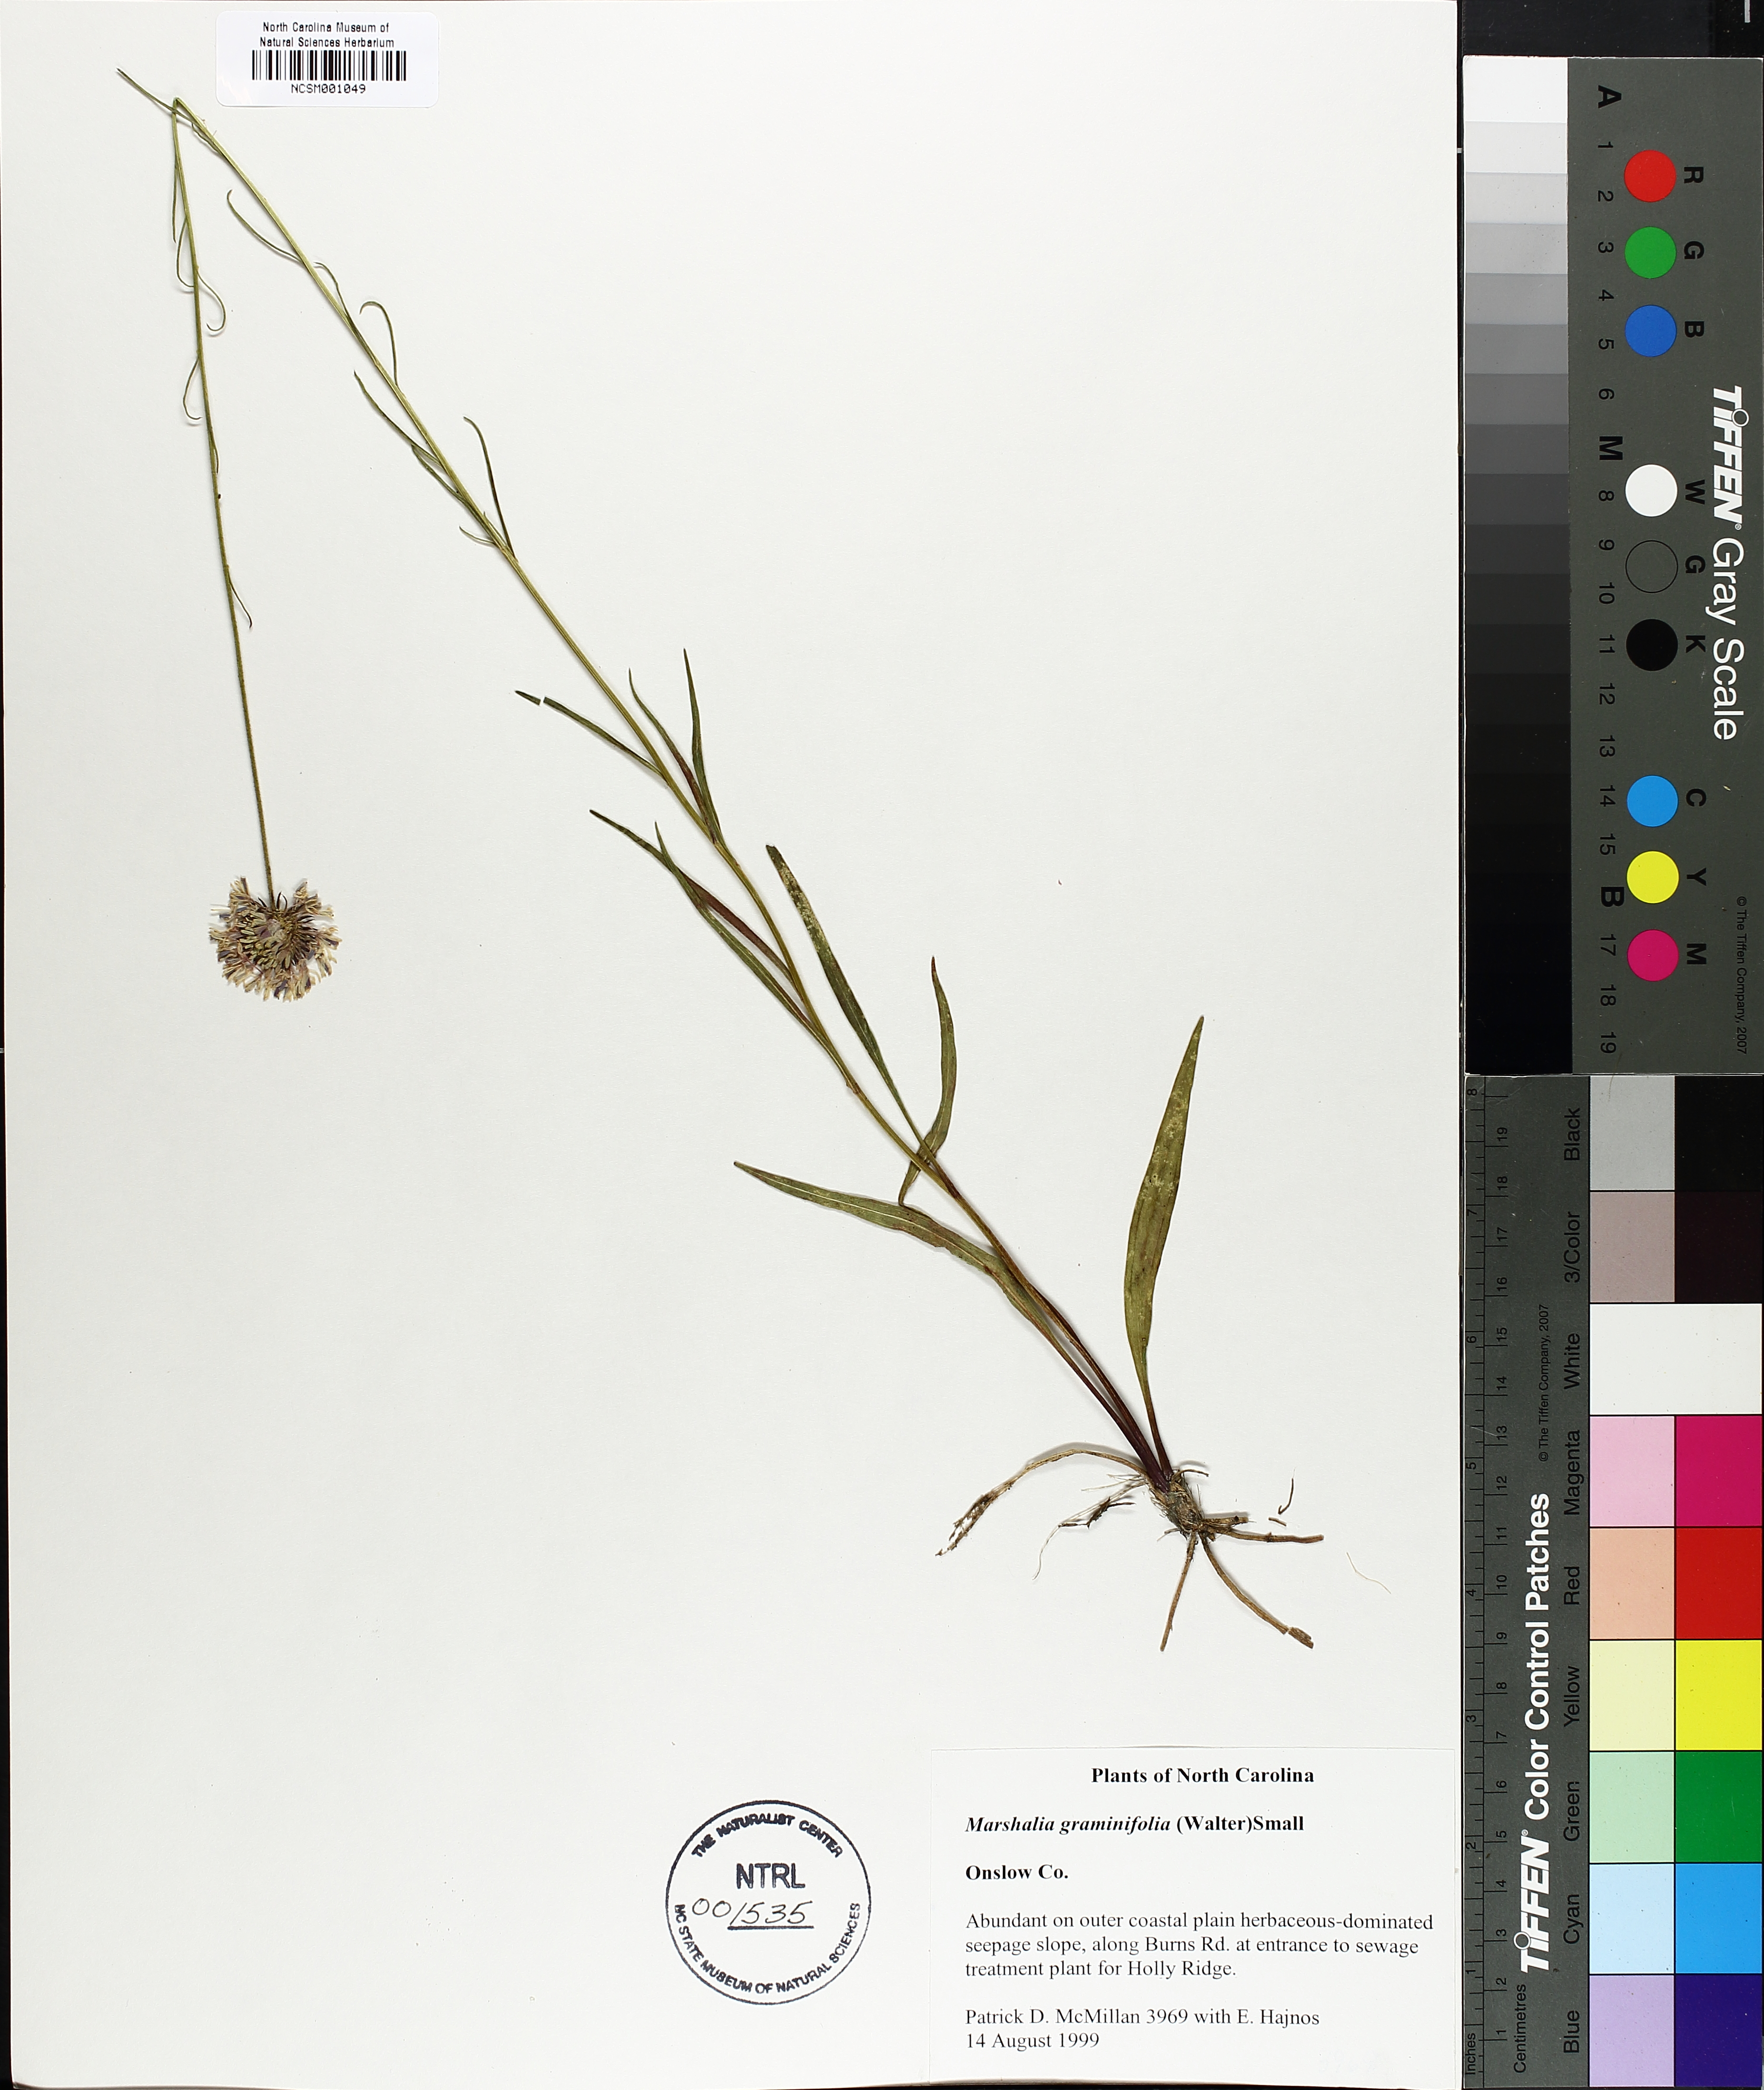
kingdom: Plantae
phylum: Tracheophyta
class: Magnoliopsida
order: Asterales
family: Asteraceae
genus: Marshallia
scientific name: Marshallia graminifolia
